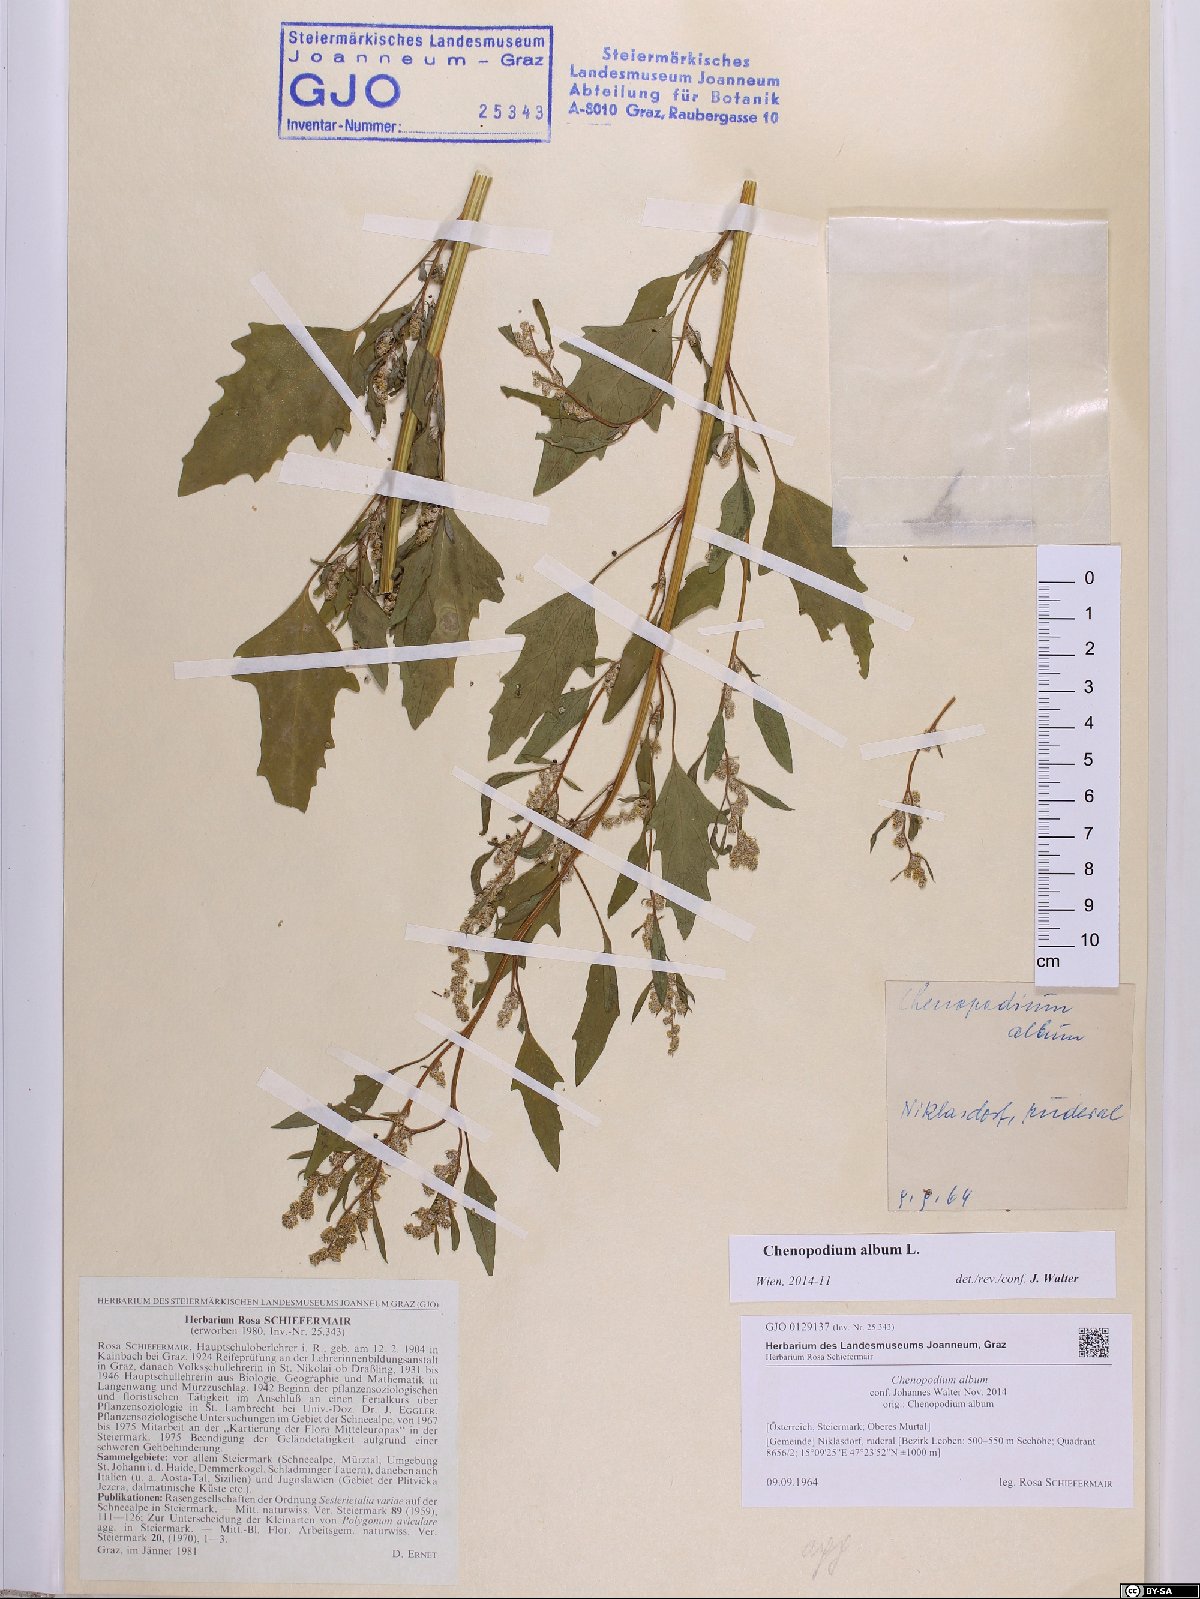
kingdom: Plantae
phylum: Tracheophyta
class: Magnoliopsida
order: Caryophyllales
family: Amaranthaceae
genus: Chenopodium
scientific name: Chenopodium album
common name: Fat-hen
